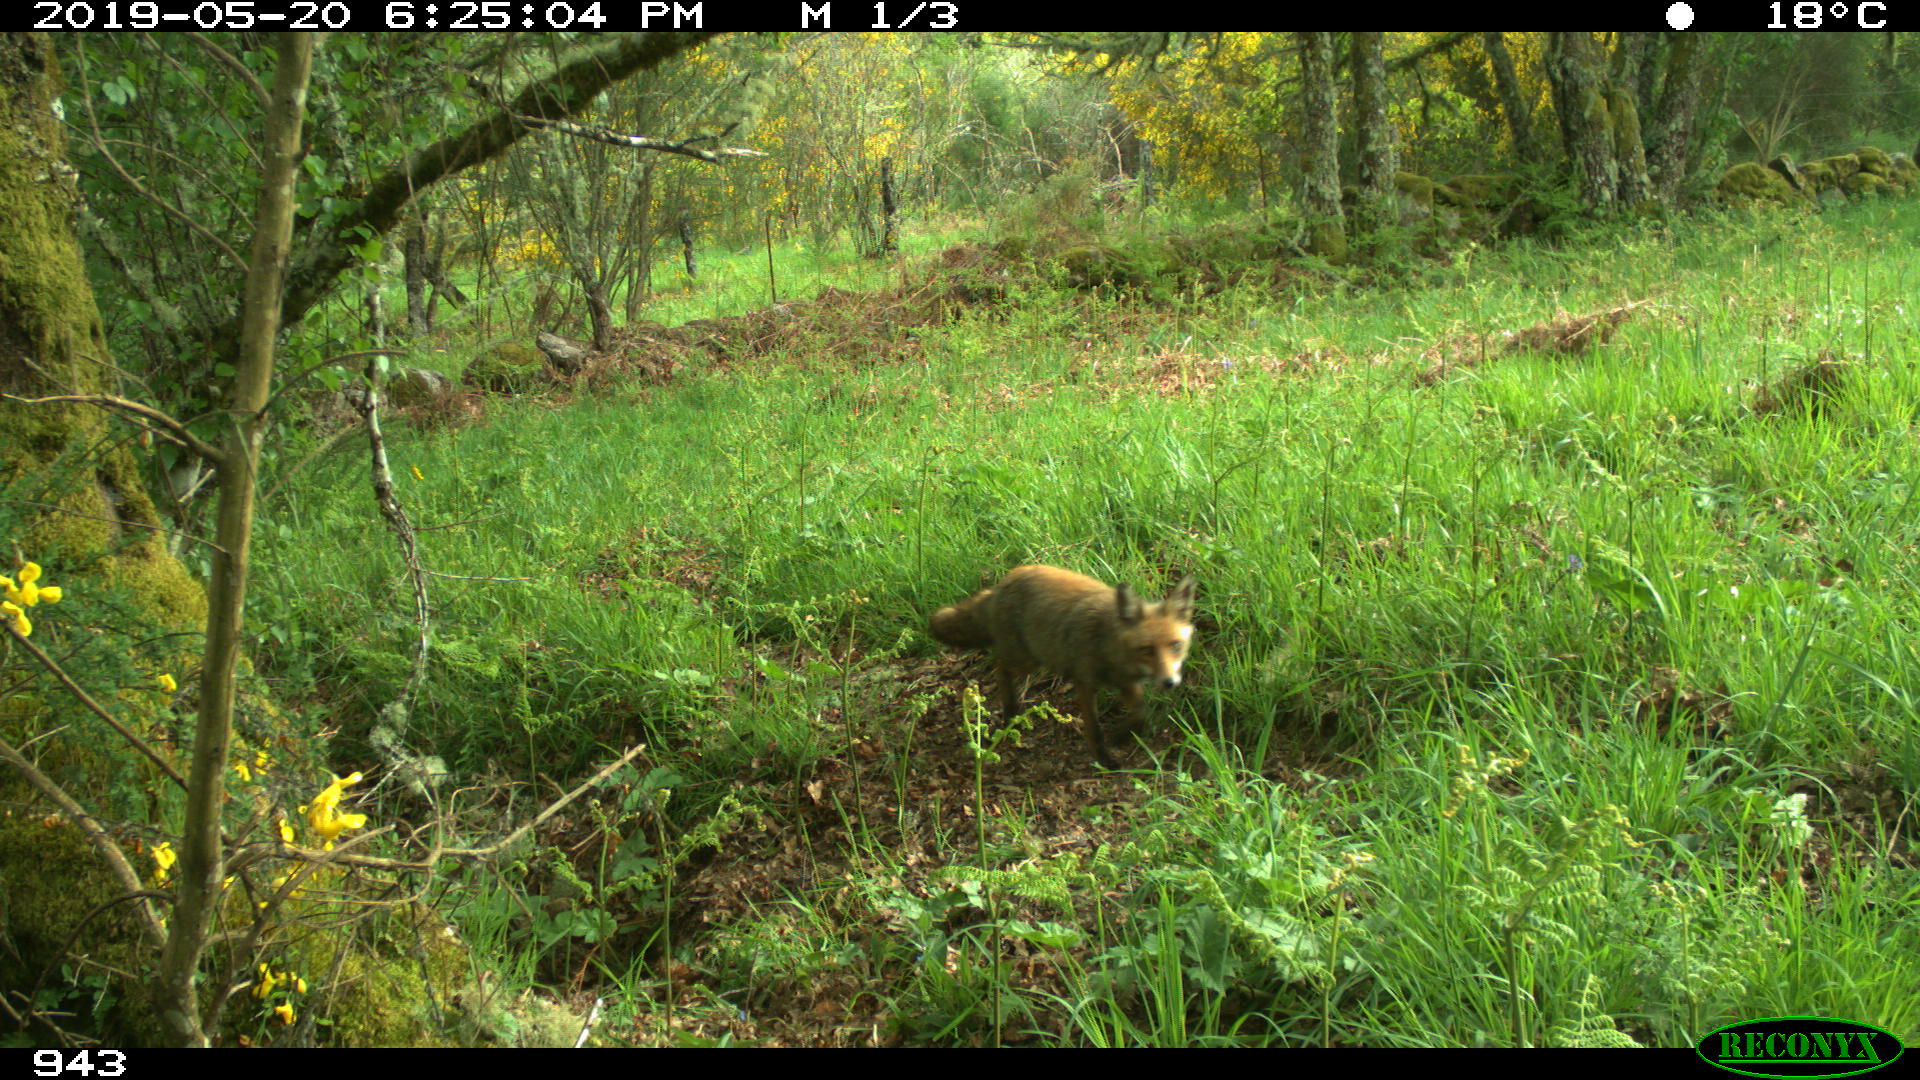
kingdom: Animalia
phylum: Chordata
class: Mammalia
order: Carnivora
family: Canidae
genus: Vulpes
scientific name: Vulpes vulpes
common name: Red fox
